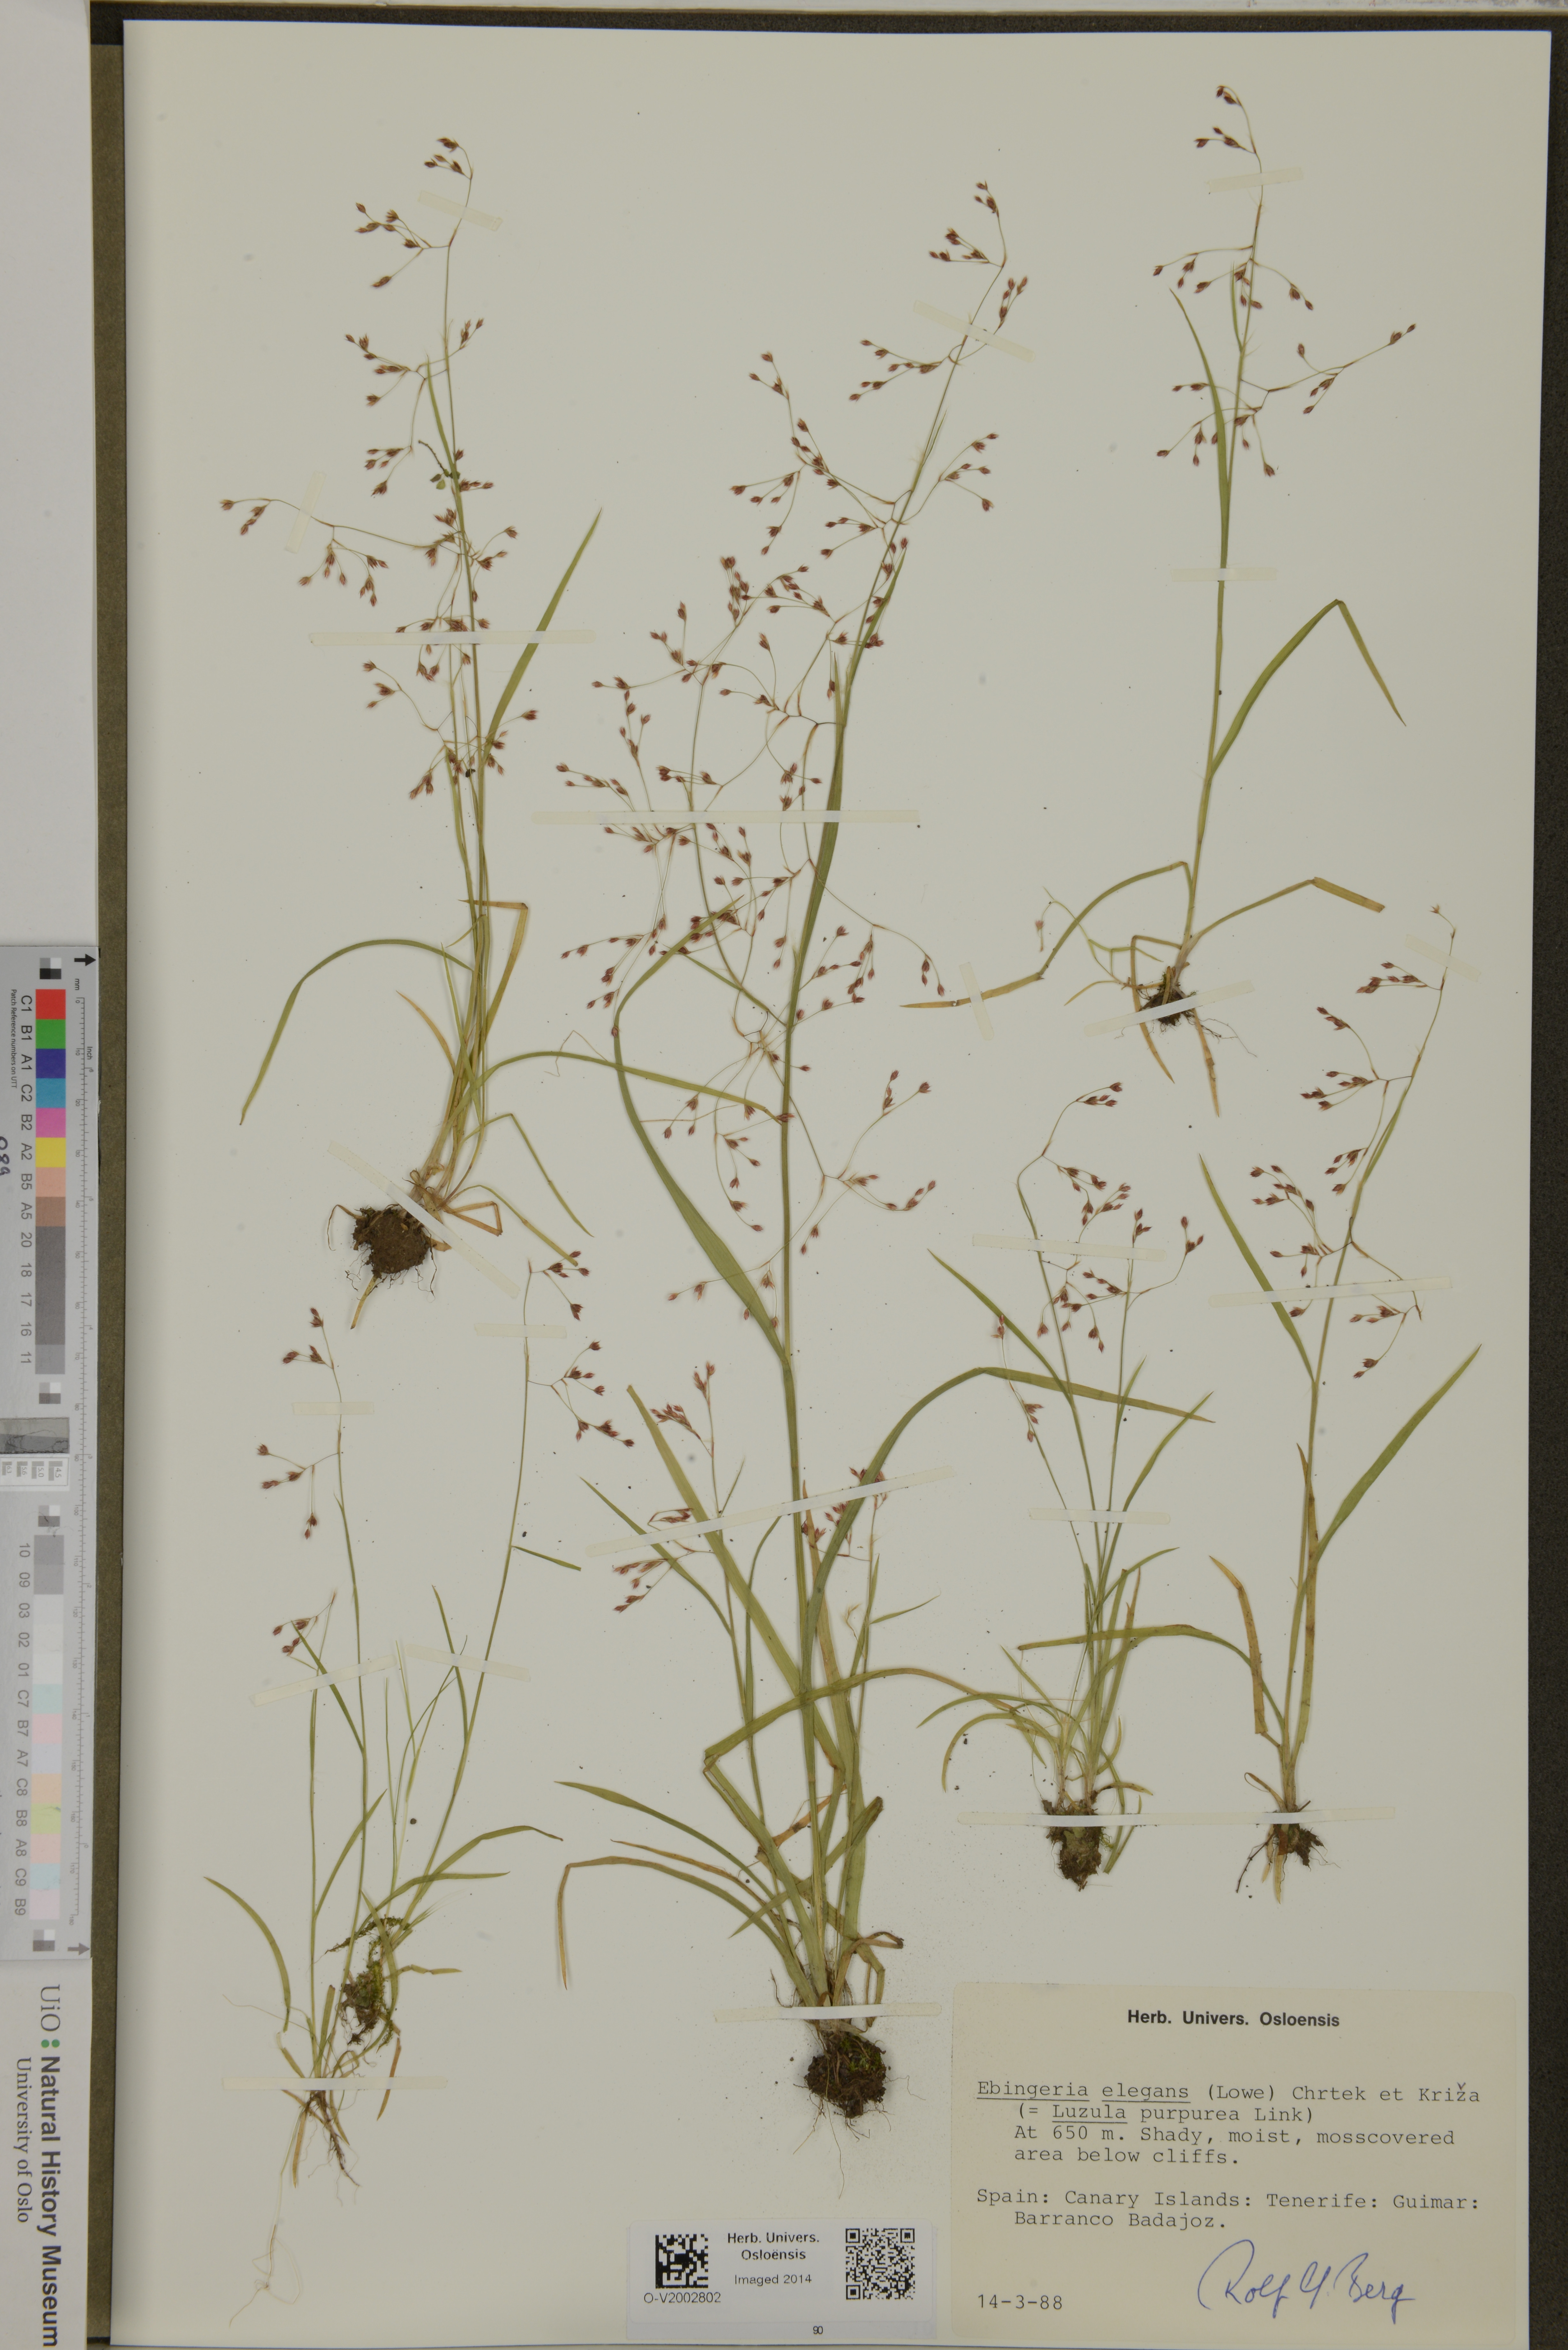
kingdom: Plantae
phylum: Tracheophyta
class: Liliopsida
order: Poales
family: Juncaceae
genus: Luzula
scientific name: Luzula elegans
